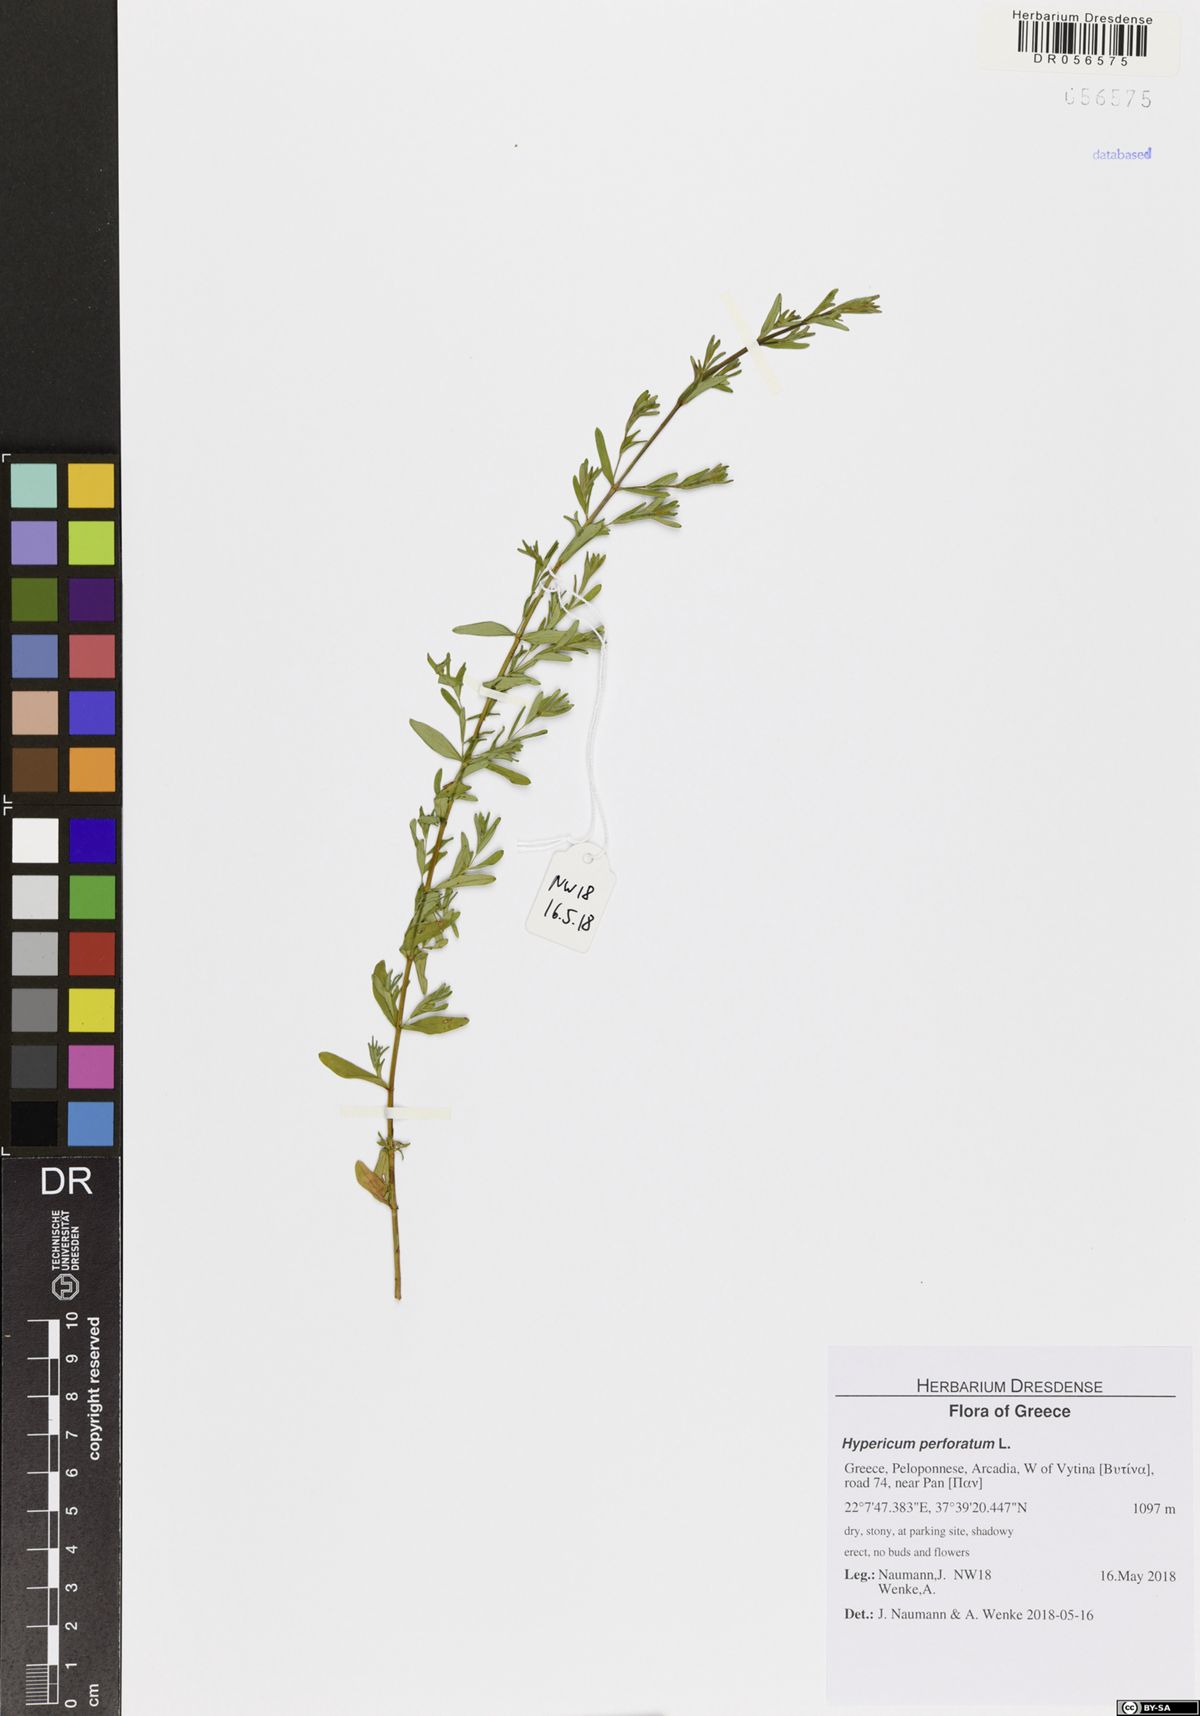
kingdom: Plantae
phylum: Tracheophyta
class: Magnoliopsida
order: Malpighiales
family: Hypericaceae
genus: Hypericum
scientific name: Hypericum perforatum
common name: Common st. johnswort
